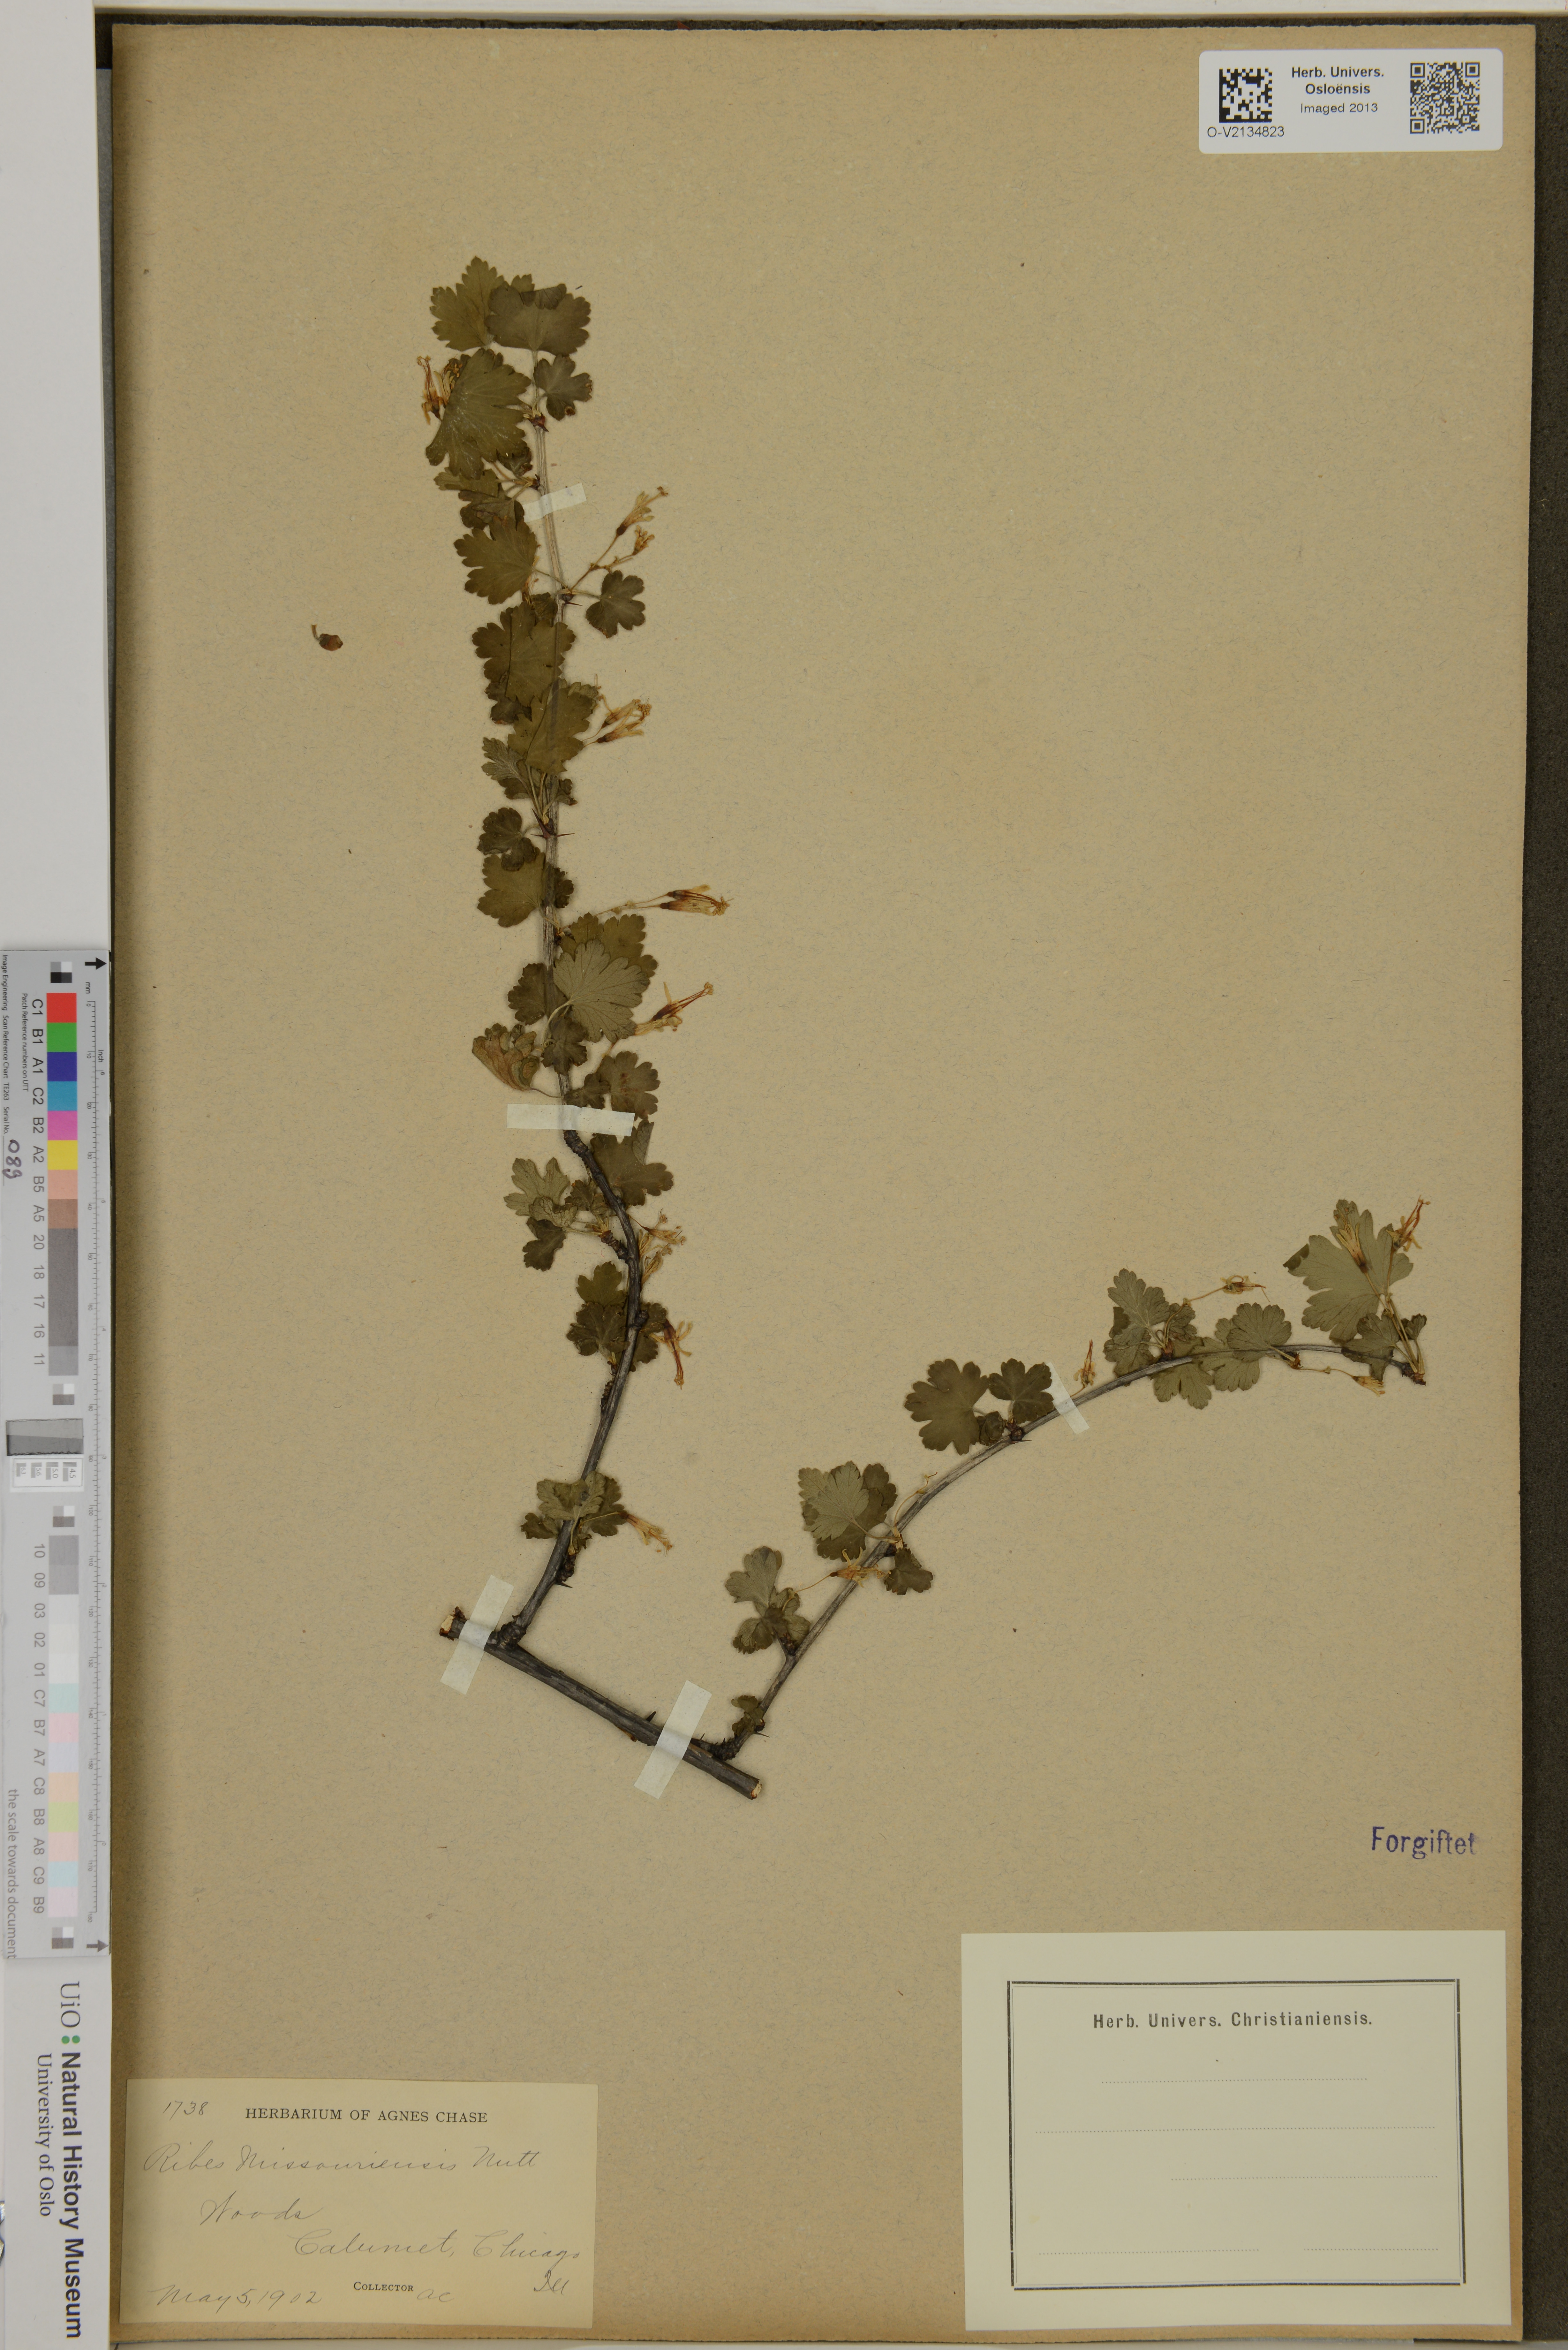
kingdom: Plantae
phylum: Tracheophyta
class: Magnoliopsida
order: Saxifragales
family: Grossulariaceae
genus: Ribes
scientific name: Ribes missouriense
